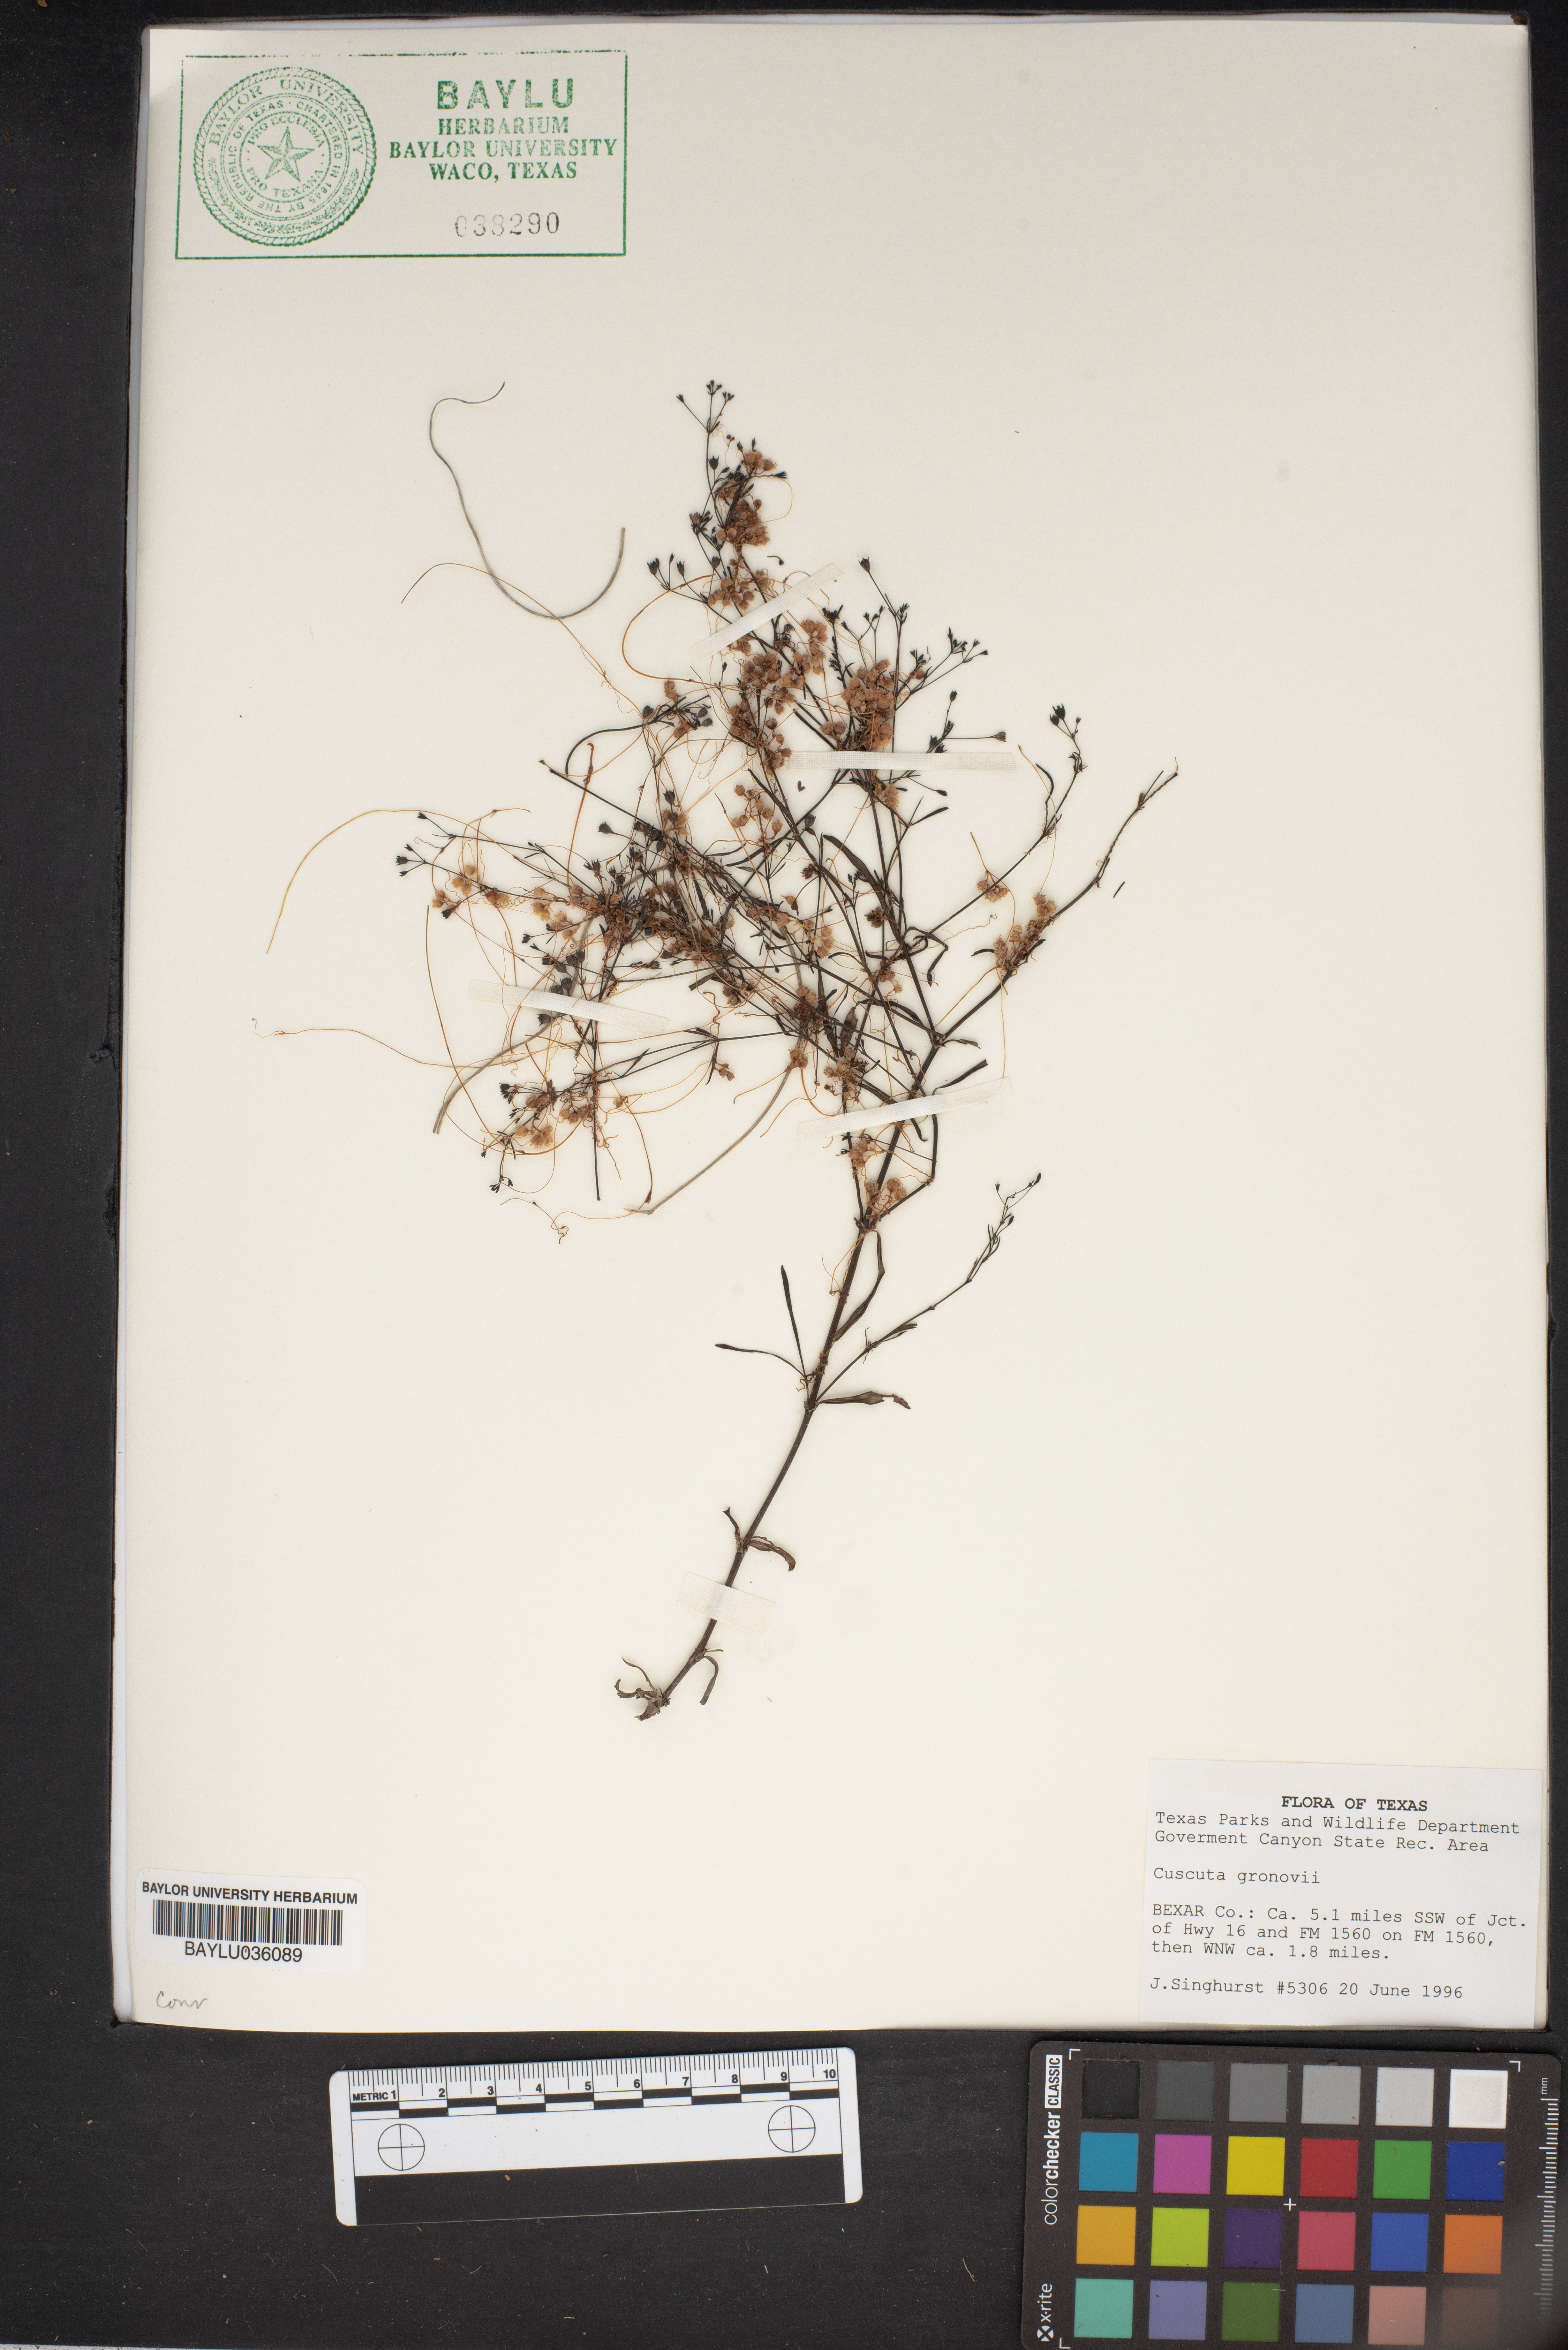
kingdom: Plantae
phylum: Tracheophyta
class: Magnoliopsida
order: Solanales
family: Convolvulaceae
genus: Cuscuta
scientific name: Cuscuta gronovii
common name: Common dodder
